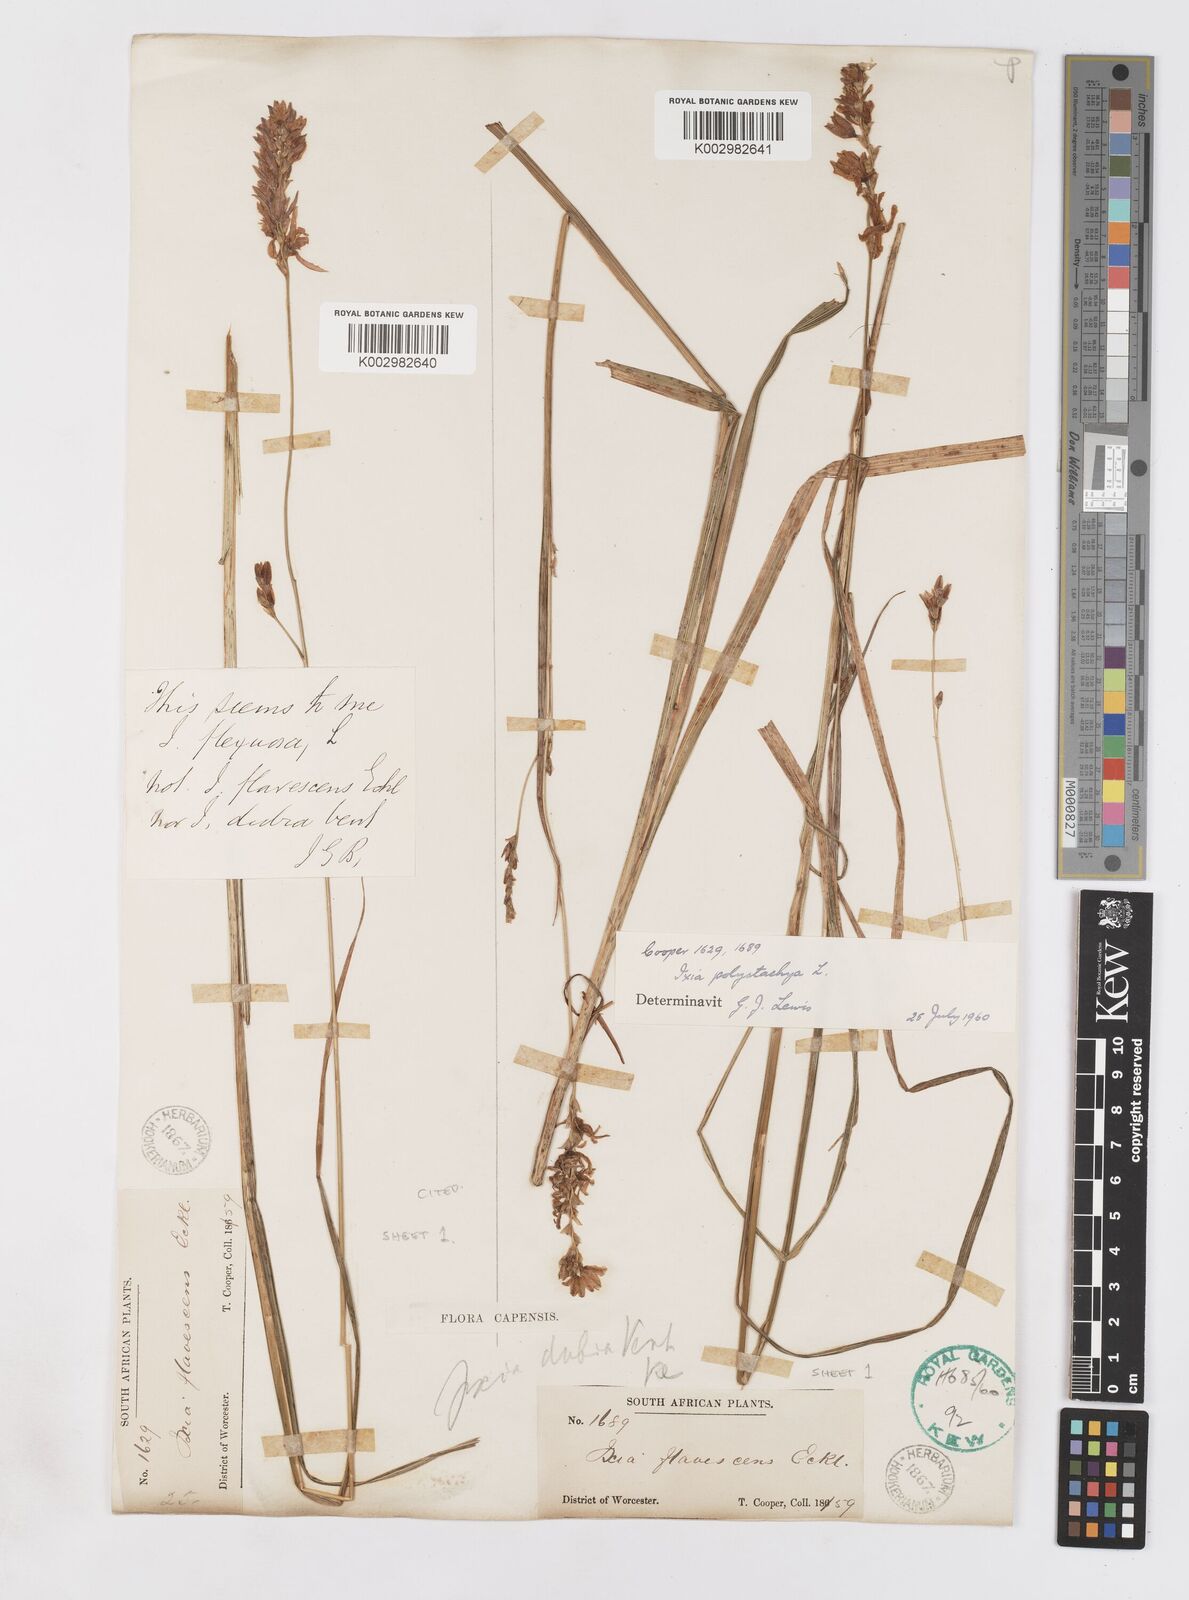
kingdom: Plantae
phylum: Tracheophyta
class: Liliopsida
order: Asparagales
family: Iridaceae
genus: Ixia
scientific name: Ixia polystachya
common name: White-and-yellow-flower cornlily
